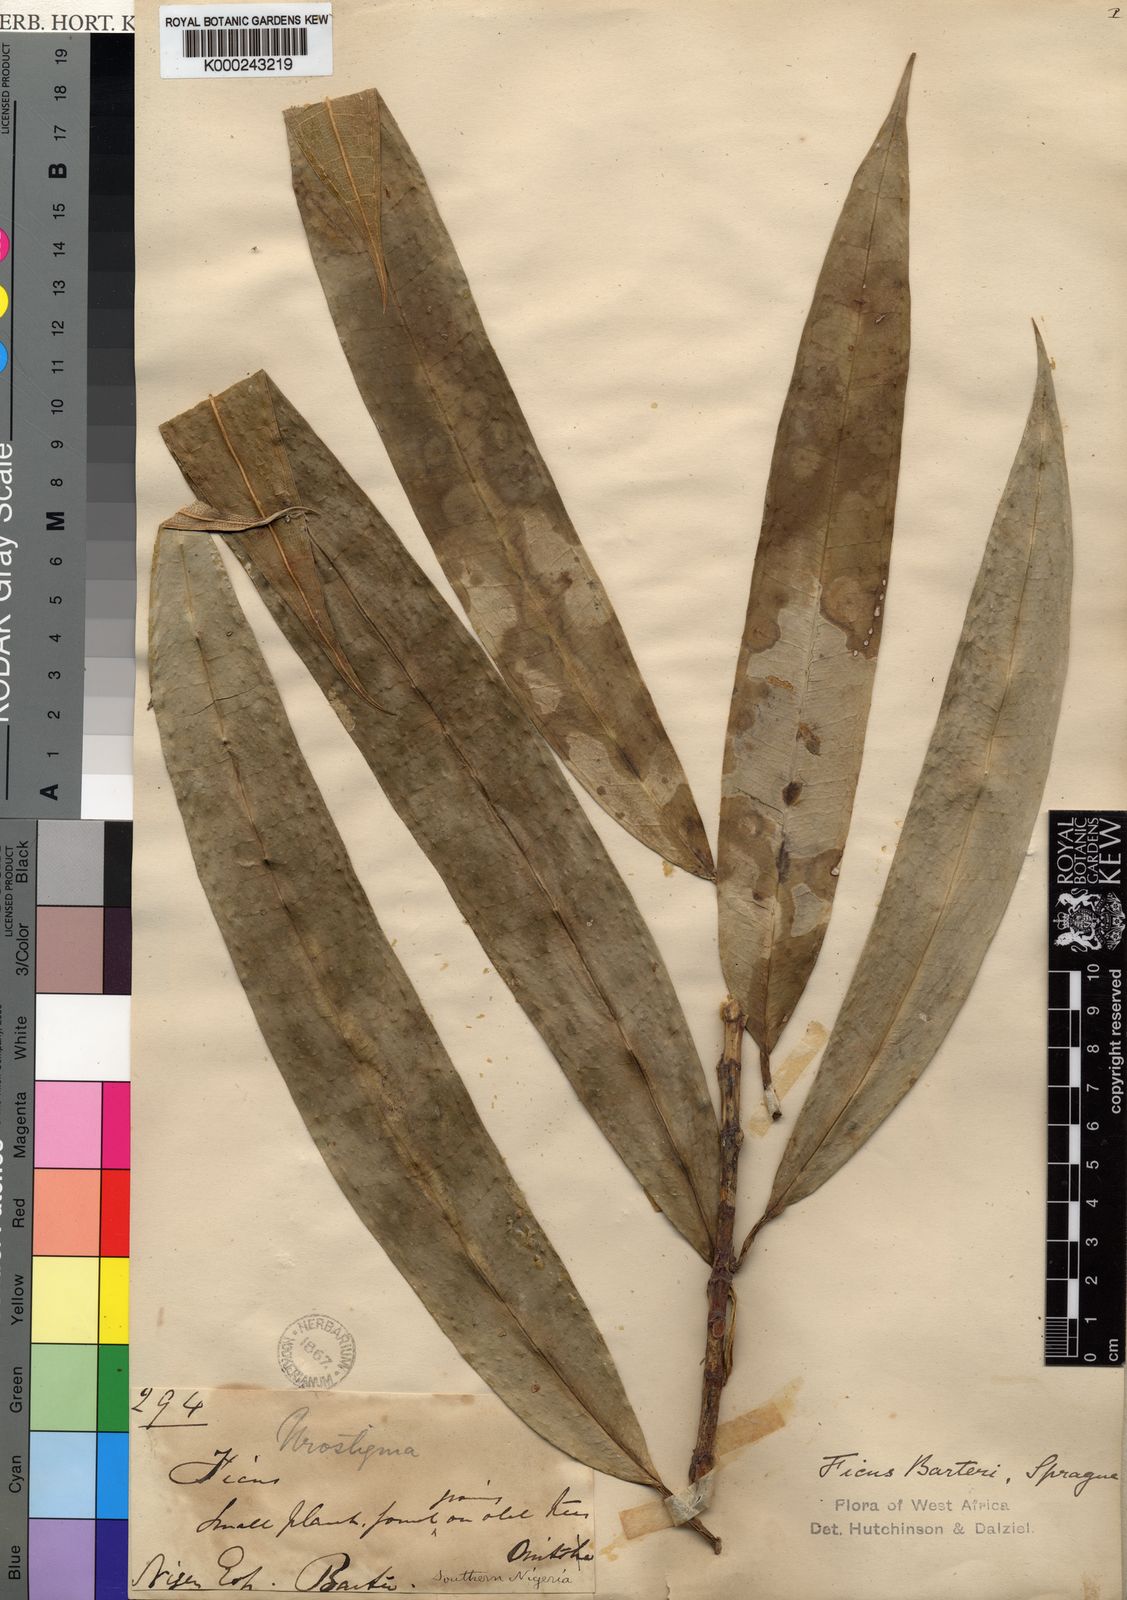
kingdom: Plantae
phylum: Tracheophyta
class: Magnoliopsida
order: Rosales
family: Moraceae
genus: Ficus
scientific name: Ficus barteri
